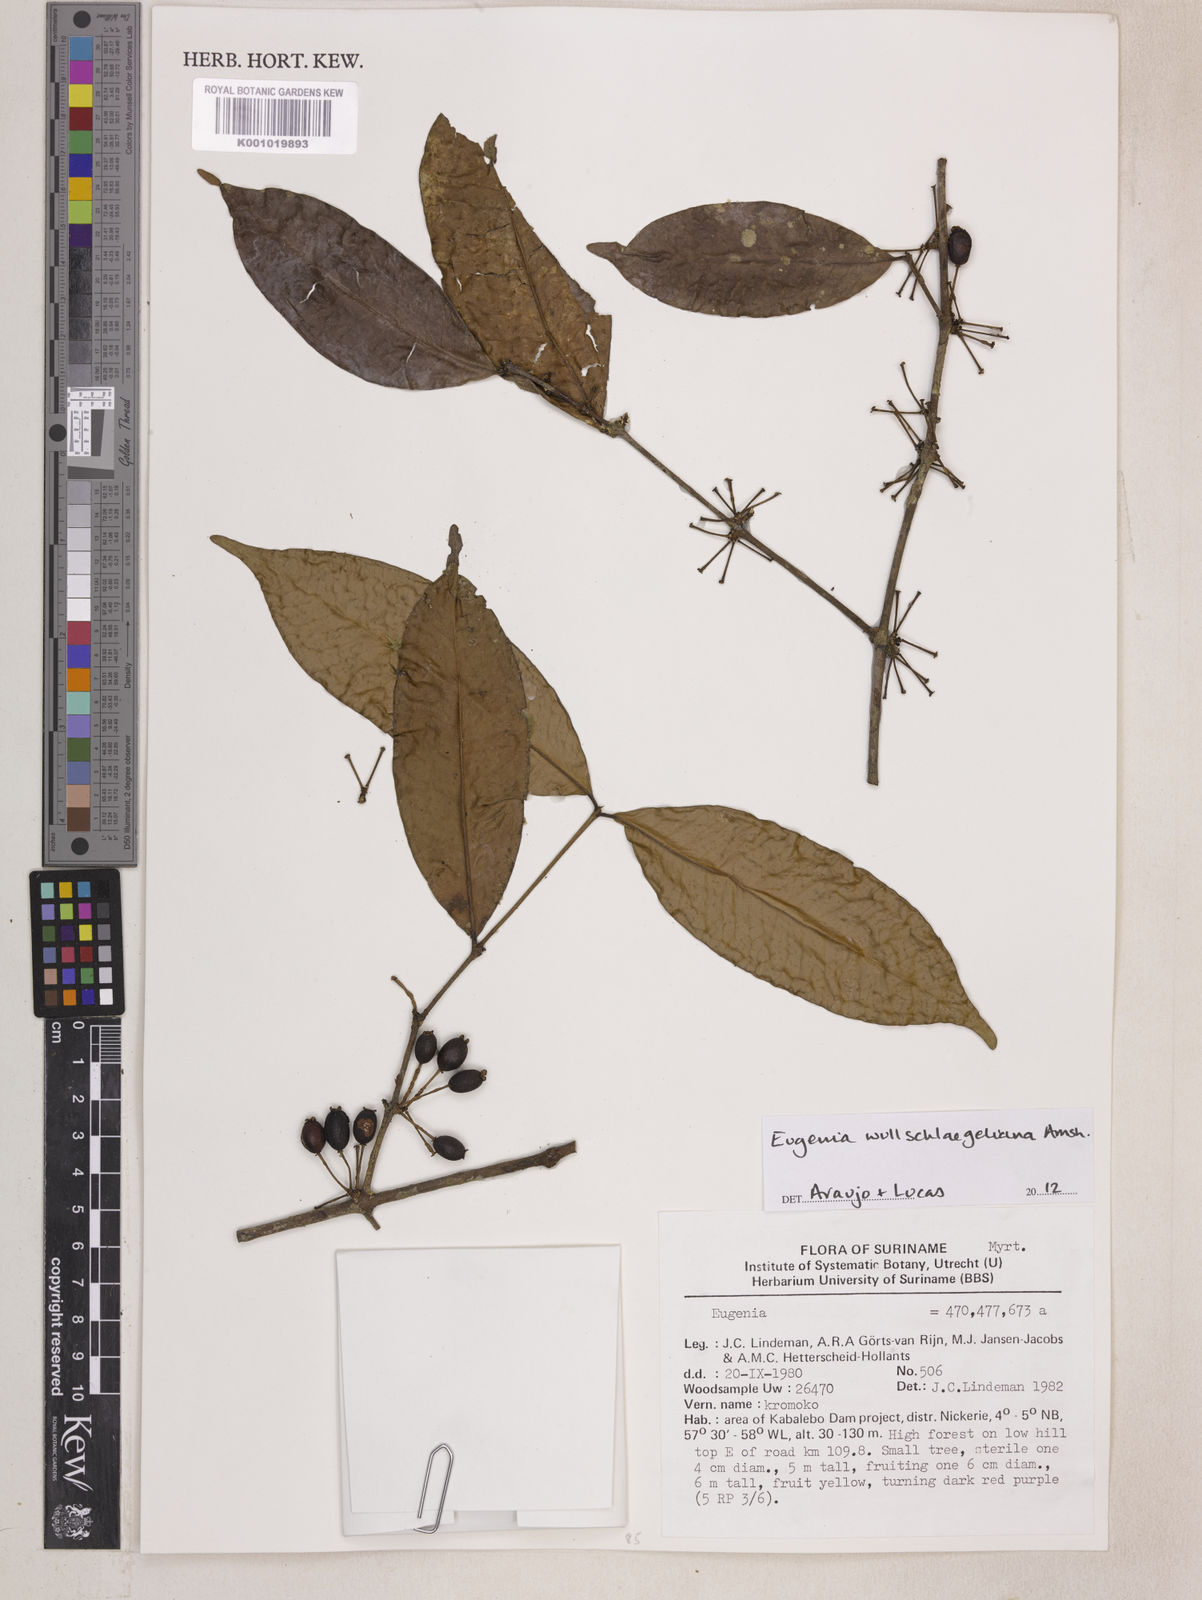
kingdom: Plantae
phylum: Tracheophyta
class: Magnoliopsida
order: Myrtales
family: Myrtaceae
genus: Eugenia
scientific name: Eugenia wullschlaegeliana
